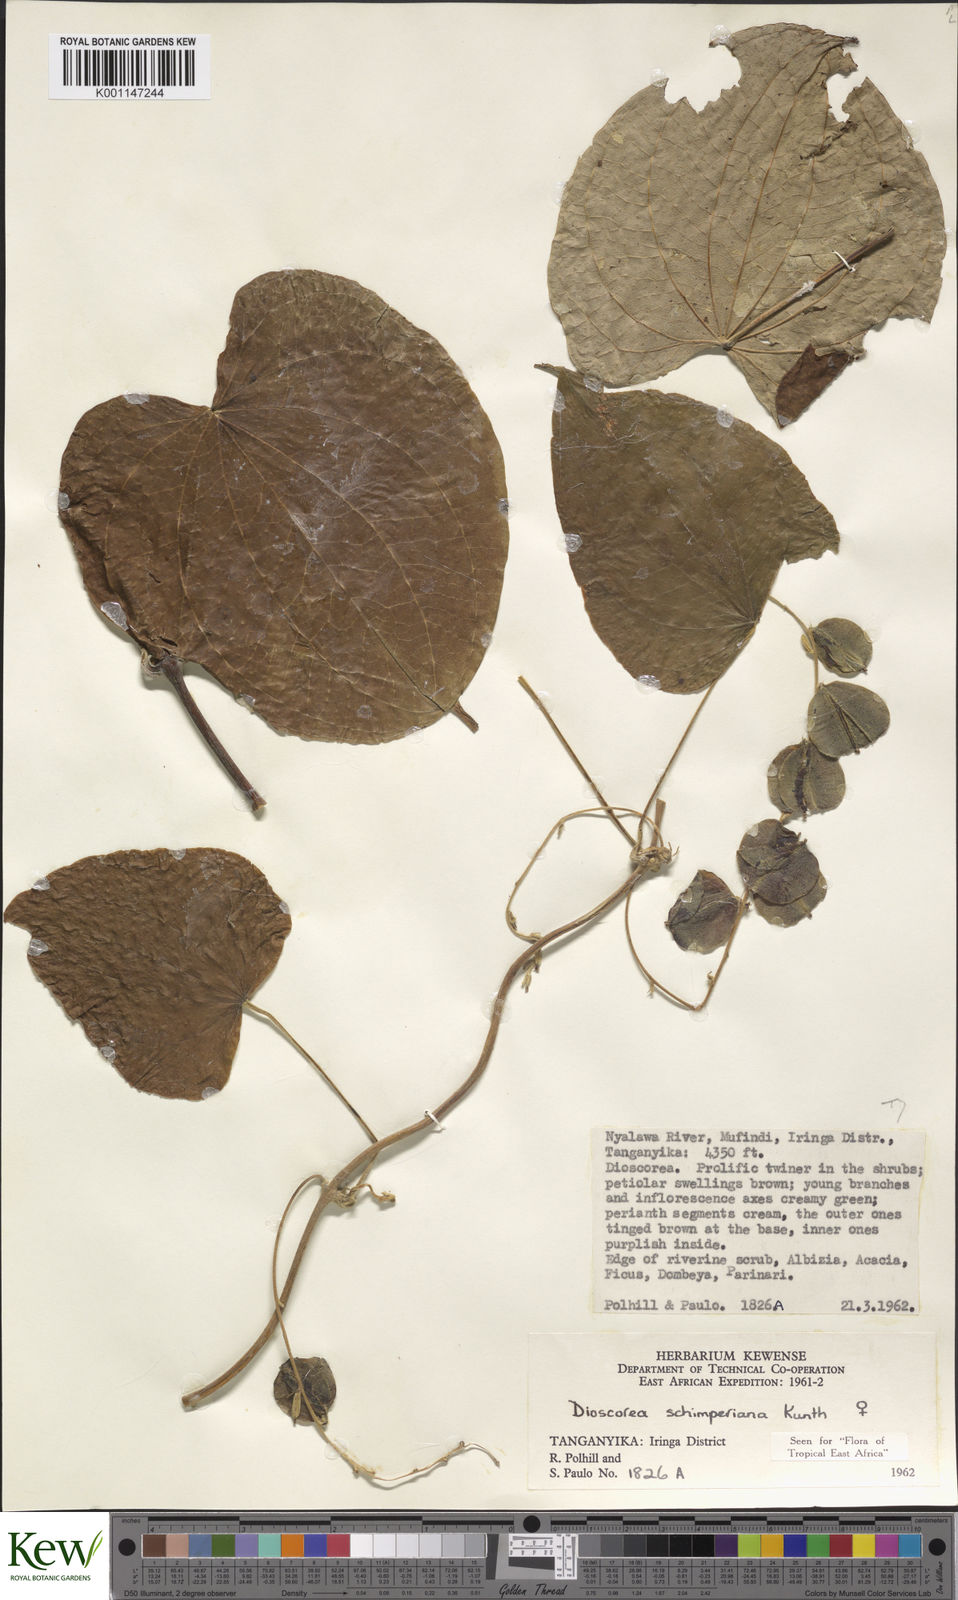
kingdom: Plantae
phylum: Tracheophyta
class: Liliopsida
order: Dioscoreales
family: Dioscoreaceae
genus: Dioscorea
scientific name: Dioscorea schimperiana
